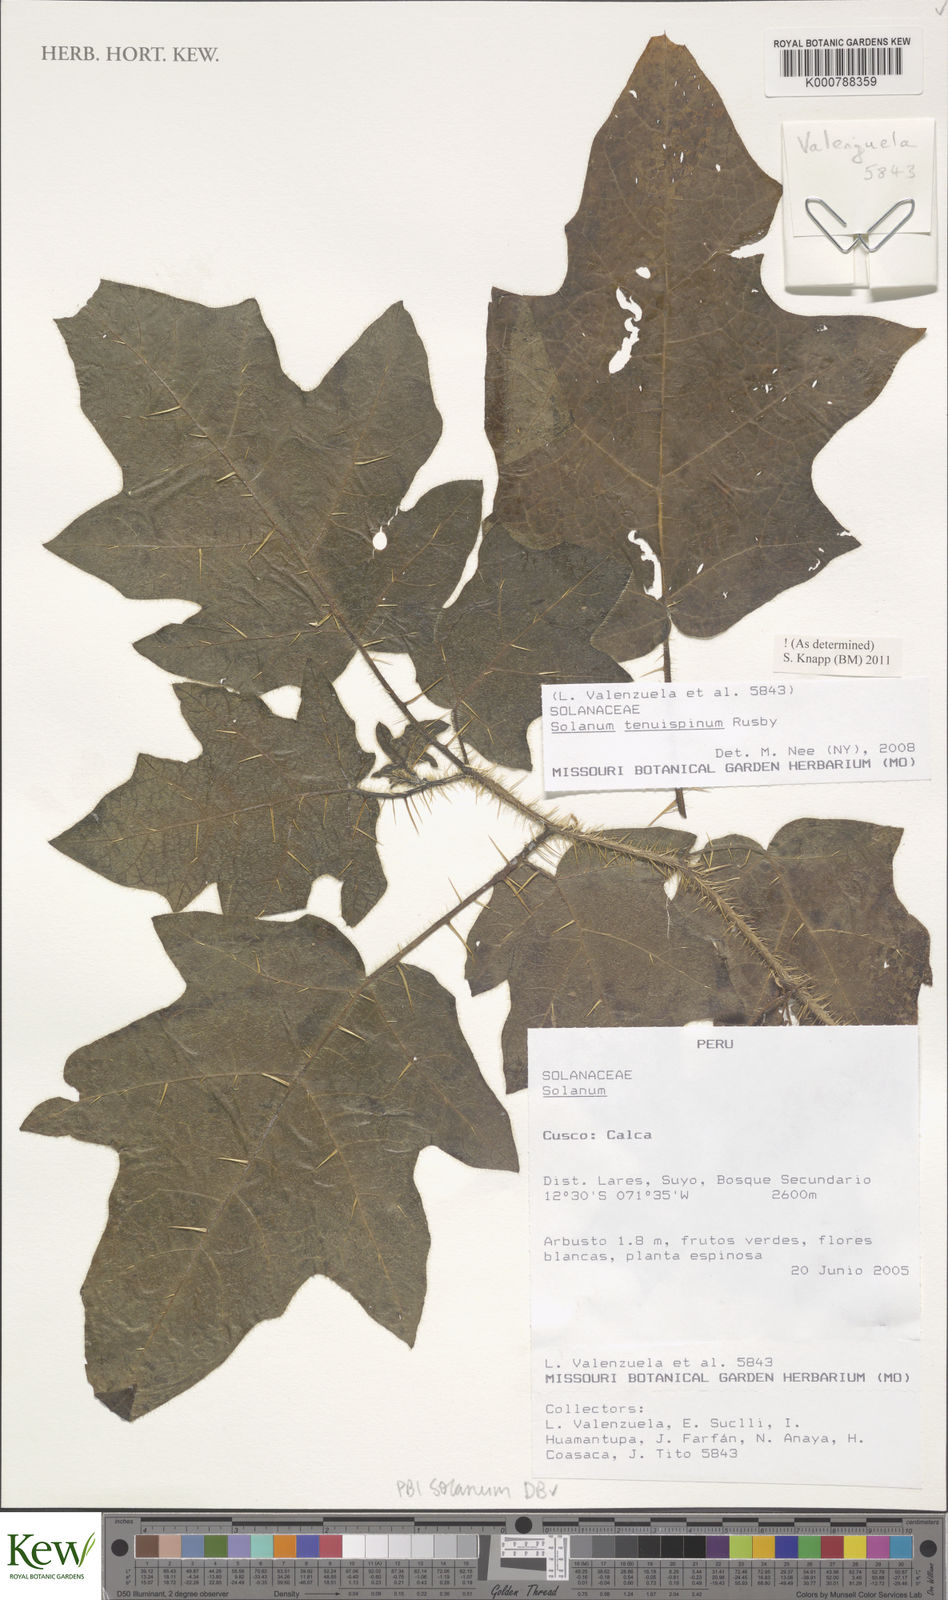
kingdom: Plantae
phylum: Tracheophyta
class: Magnoliopsida
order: Solanales
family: Solanaceae
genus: Solanum
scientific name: Solanum tenuispinum
